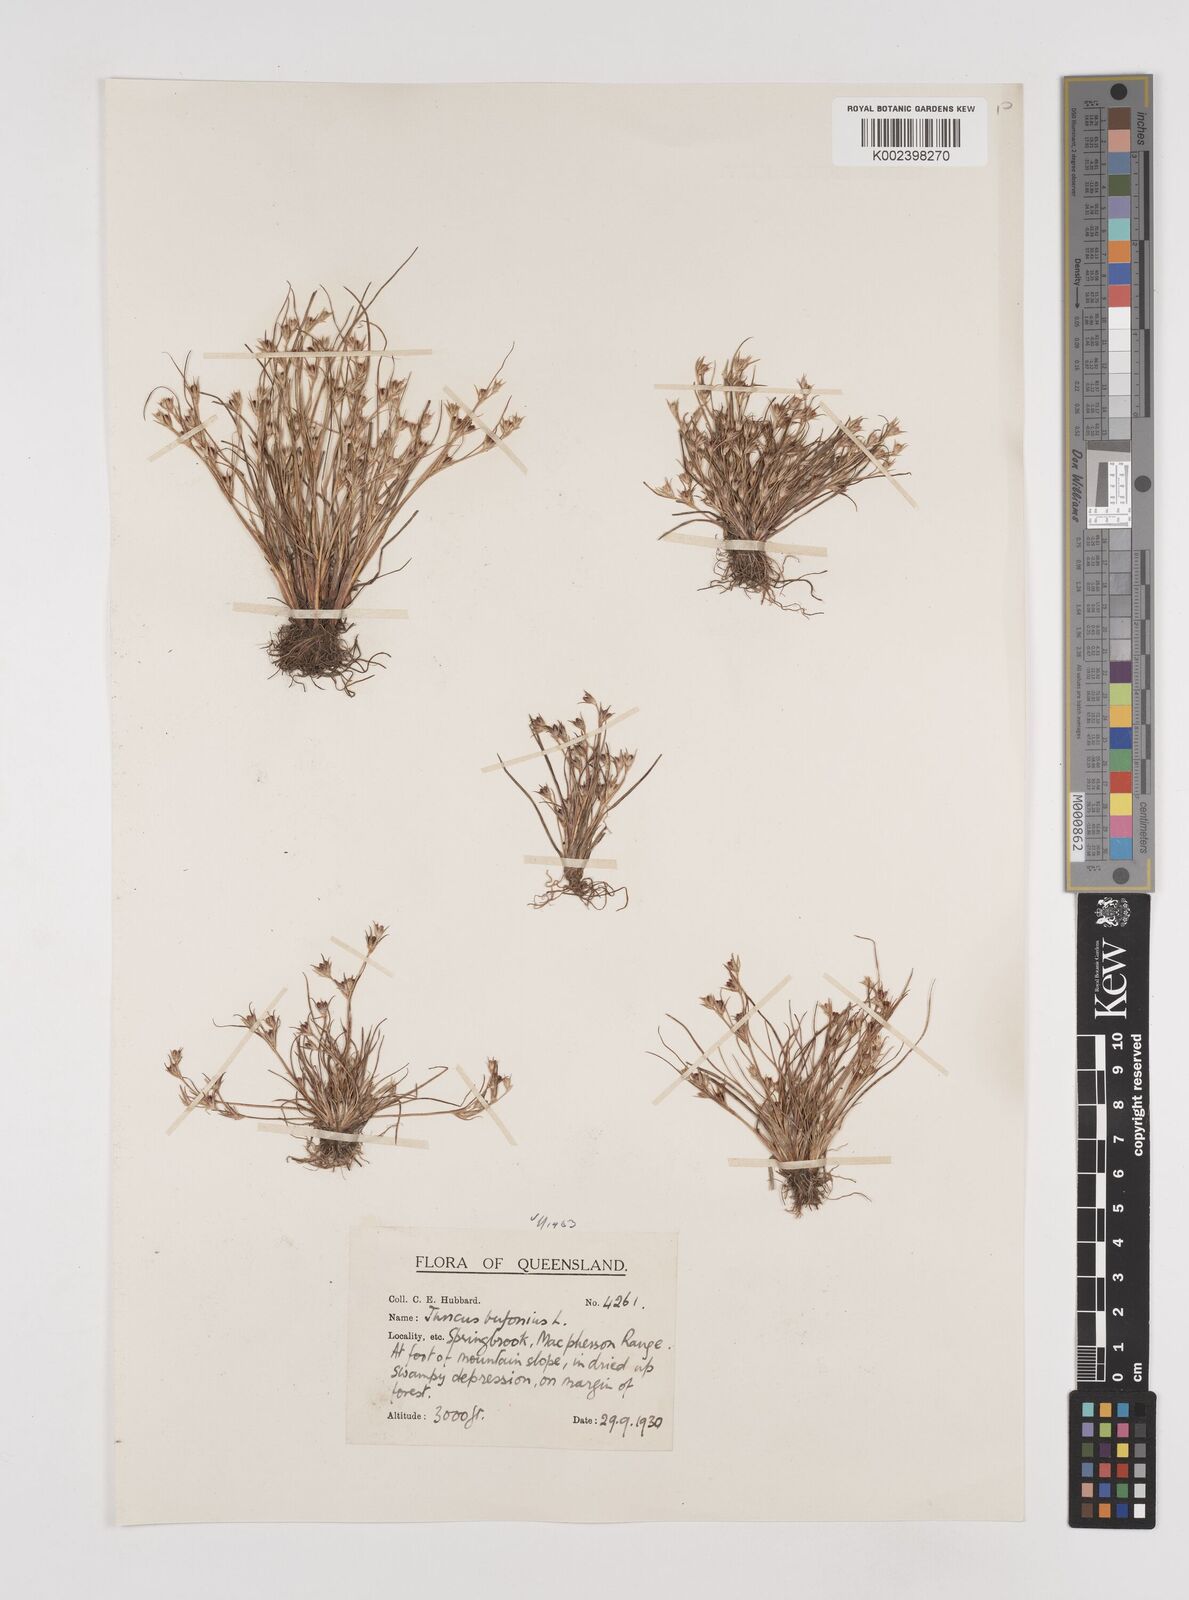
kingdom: Plantae
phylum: Tracheophyta
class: Liliopsida
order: Poales
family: Juncaceae
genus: Juncus
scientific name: Juncus bufonius
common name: Toad rush
